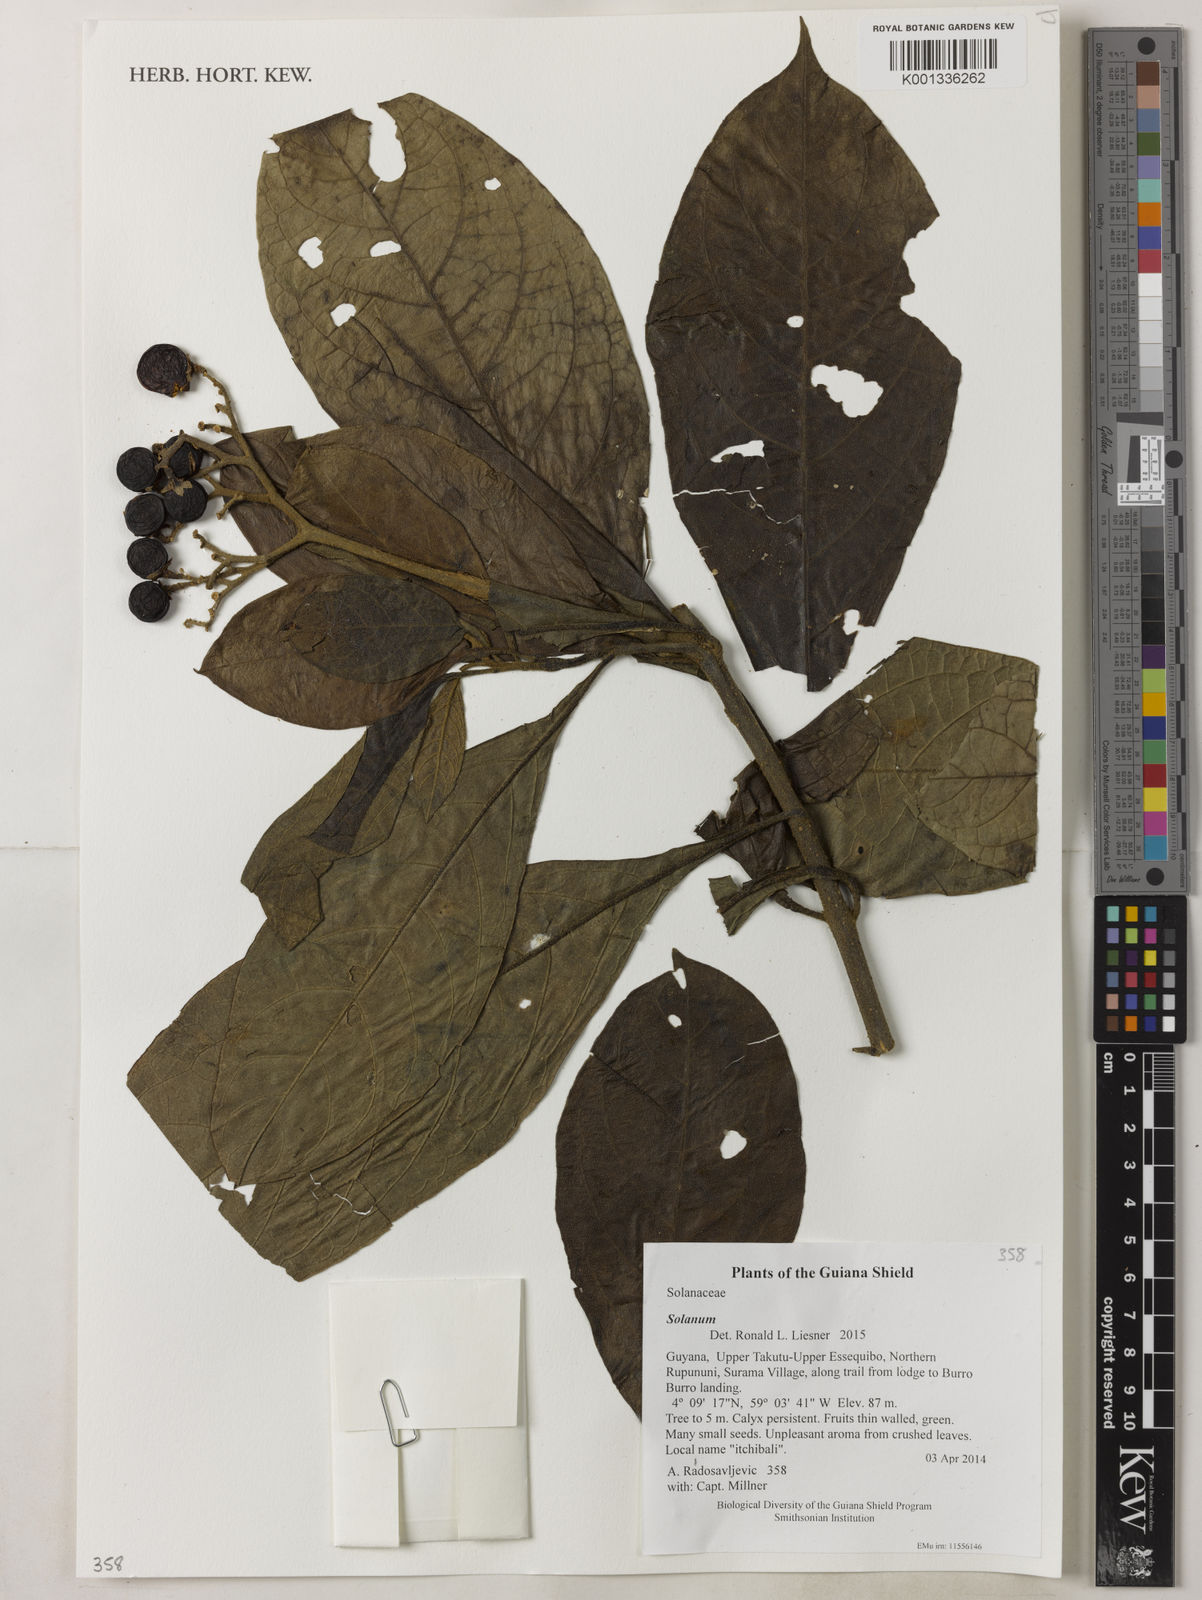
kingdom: Plantae
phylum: Tracheophyta
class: Magnoliopsida
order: Solanales
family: Solanaceae
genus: Solanum
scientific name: Solanum rugosum
